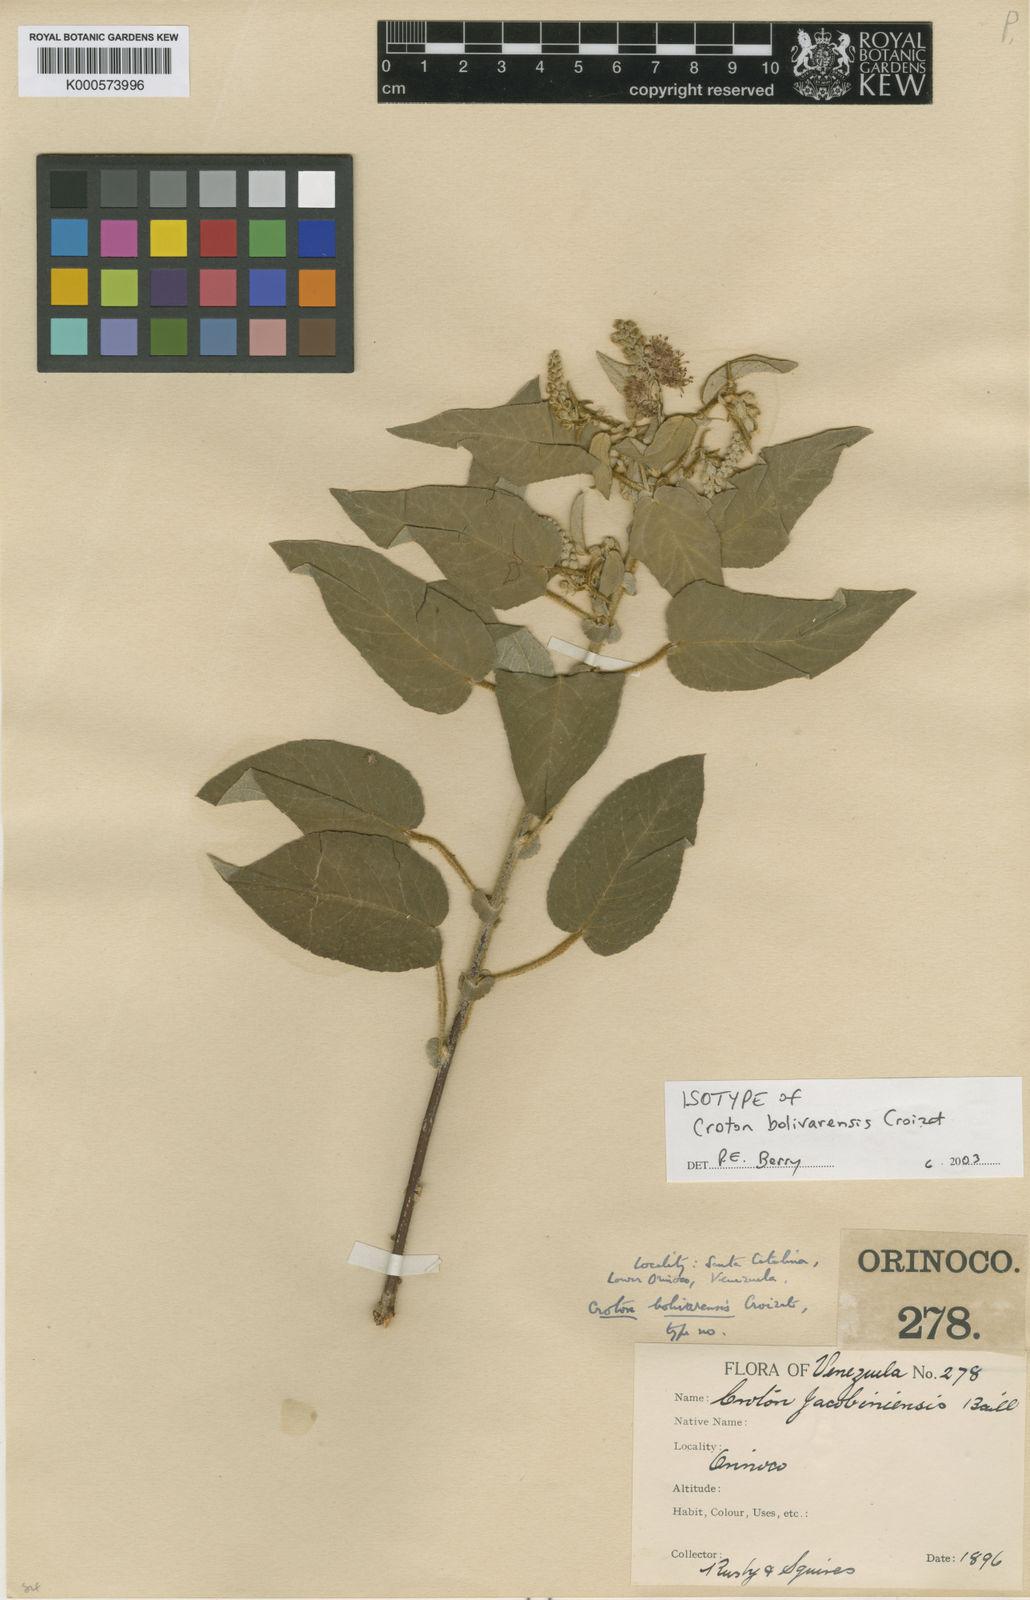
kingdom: Plantae
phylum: Tracheophyta
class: Magnoliopsida
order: Malpighiales
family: Euphorbiaceae
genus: Croton
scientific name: Croton bolivarensis
